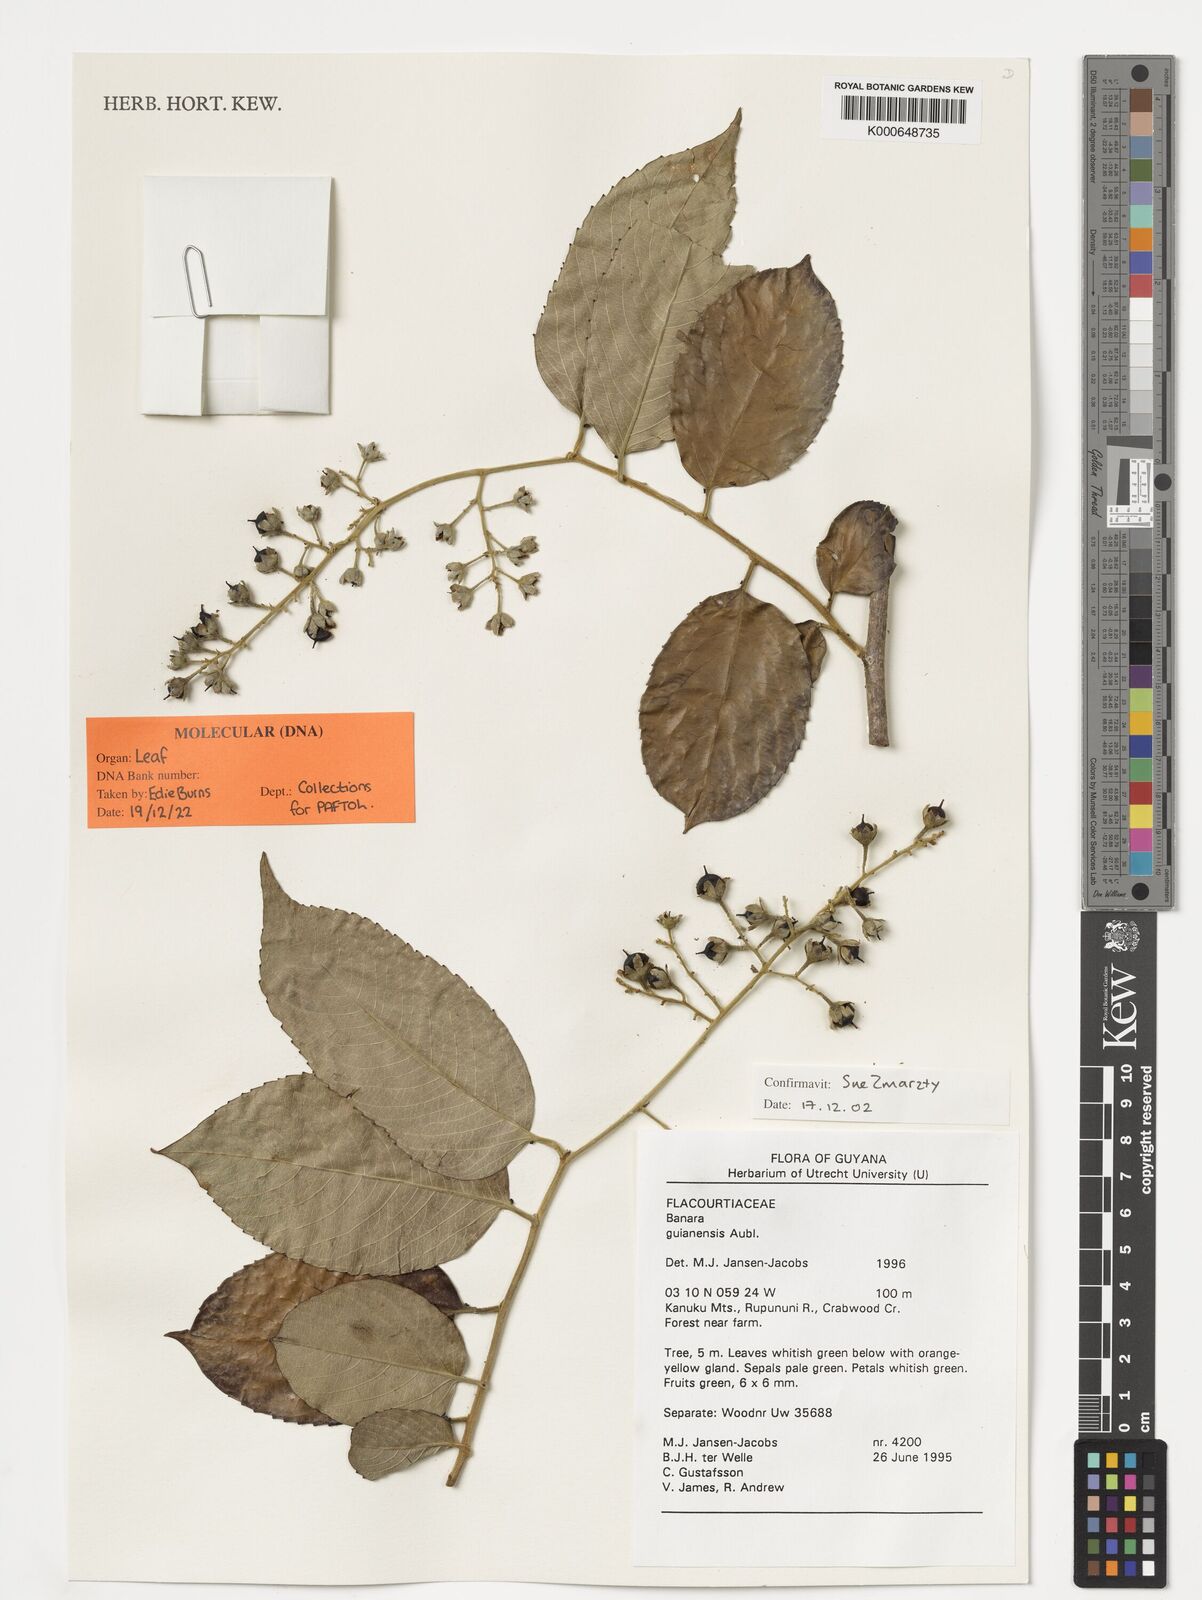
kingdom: Plantae
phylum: Tracheophyta
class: Magnoliopsida
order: Malpighiales
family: Salicaceae
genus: Banara
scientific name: Banara guianensis
